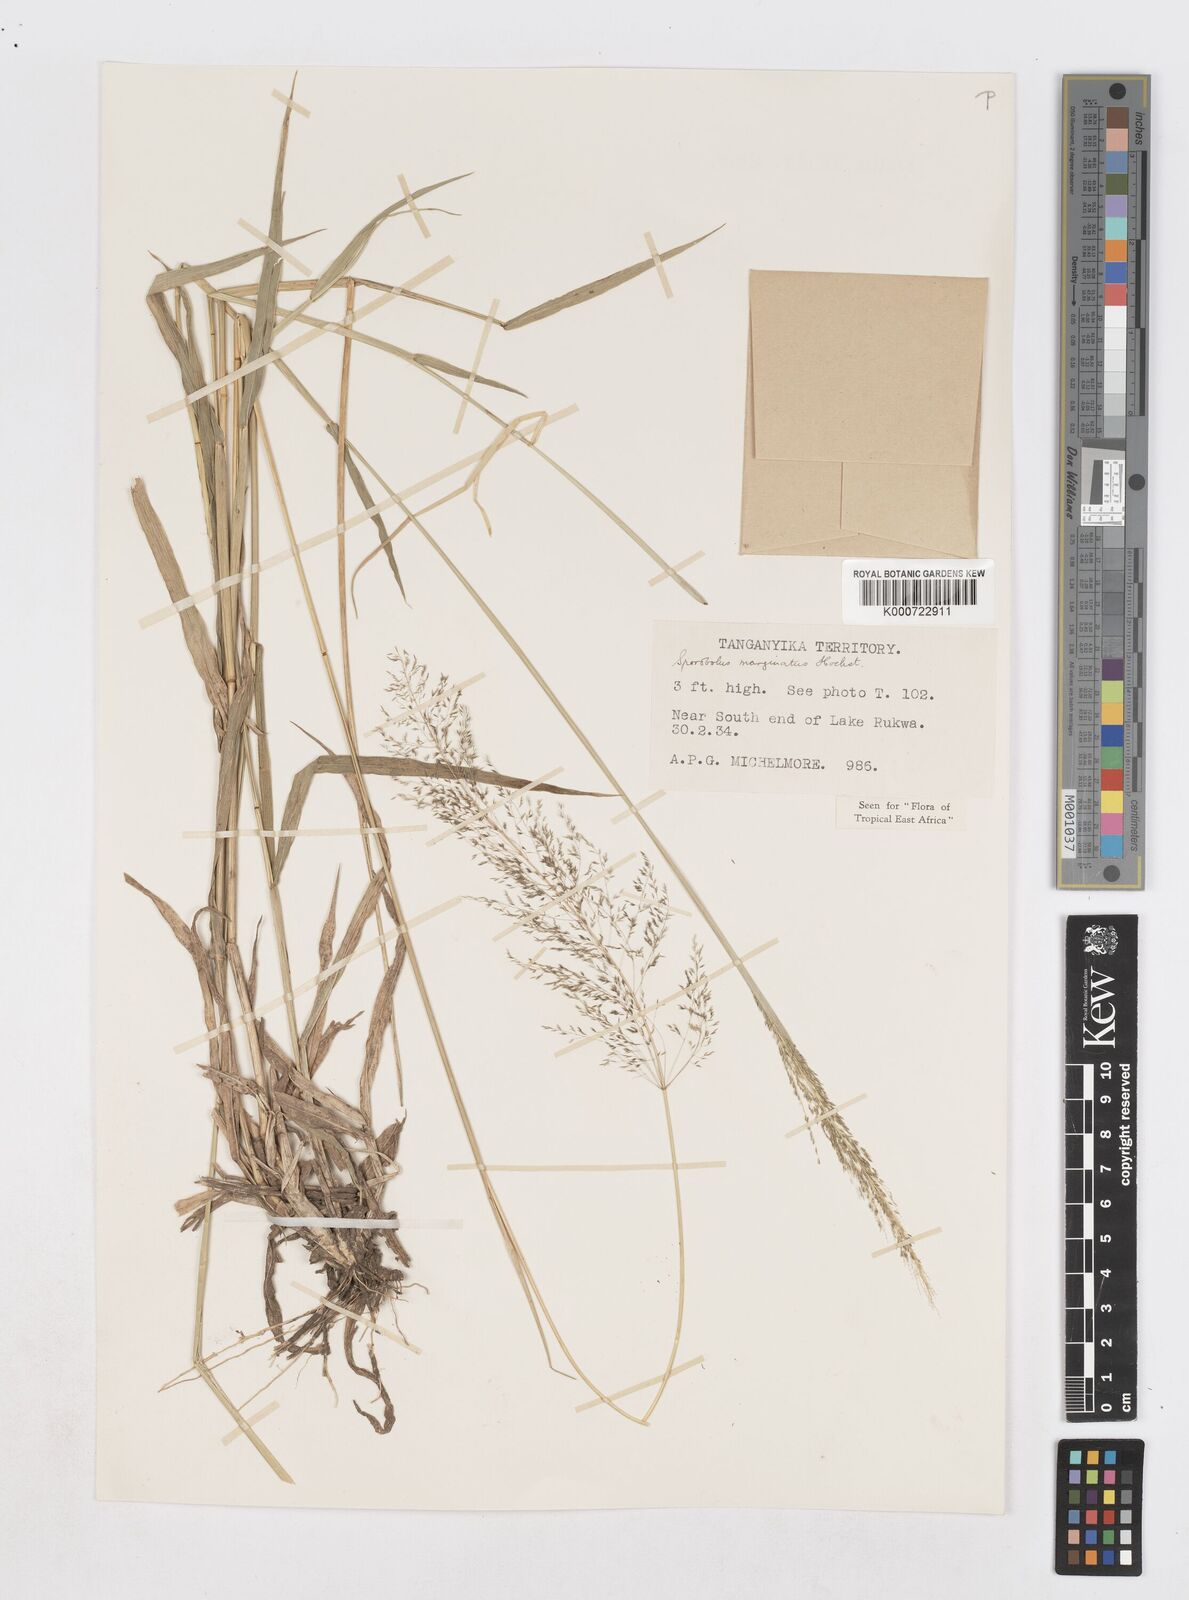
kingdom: Plantae
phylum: Tracheophyta
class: Liliopsida
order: Poales
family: Poaceae
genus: Sporobolus
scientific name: Sporobolus ioclados
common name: Pan dropseed
